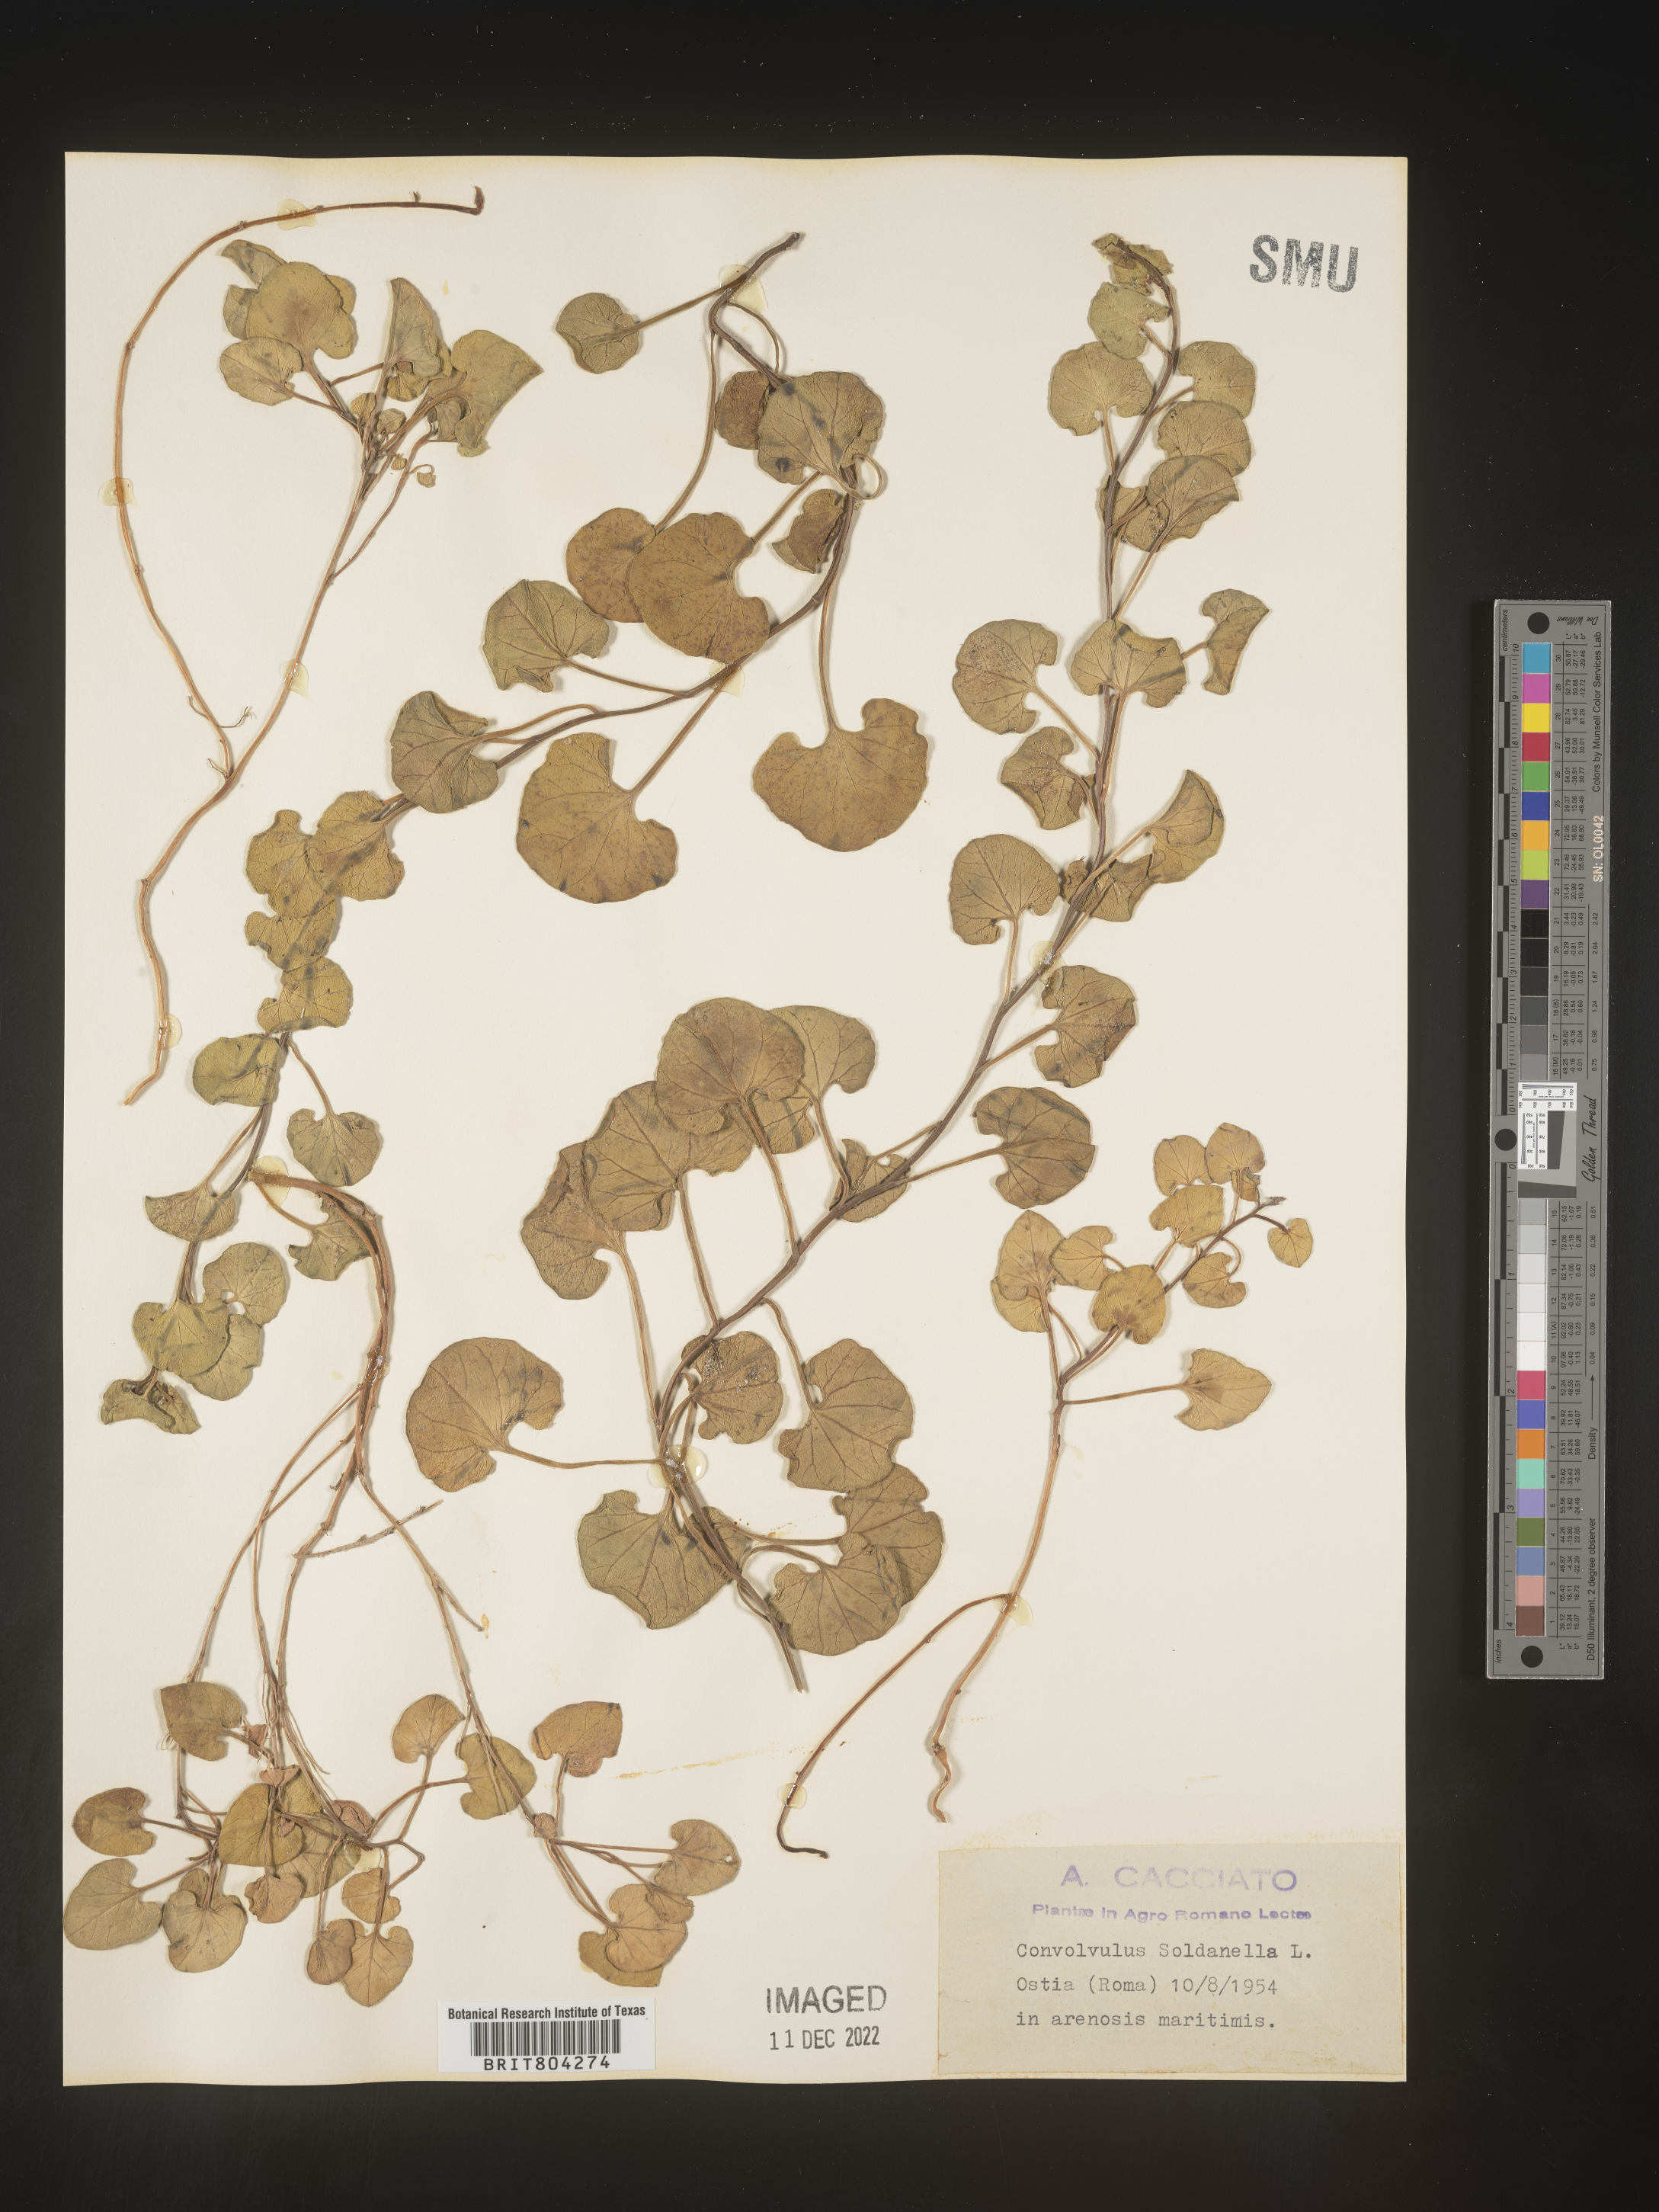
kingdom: Plantae
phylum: Tracheophyta
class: Magnoliopsida
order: Solanales
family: Convolvulaceae
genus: Calystegia
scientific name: Calystegia
